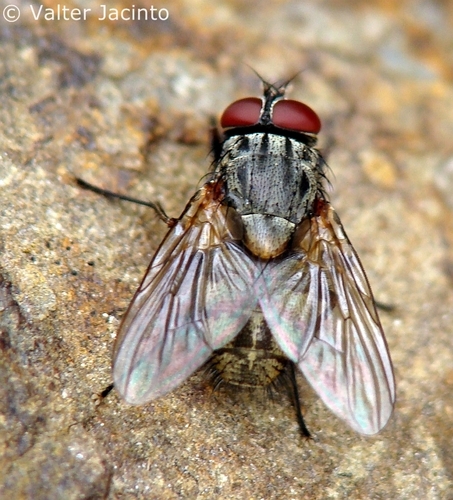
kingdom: Animalia
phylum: Arthropoda
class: Insecta
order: Diptera
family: Muscidae
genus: Muscina
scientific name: Muscina stabulans
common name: False stable fly
